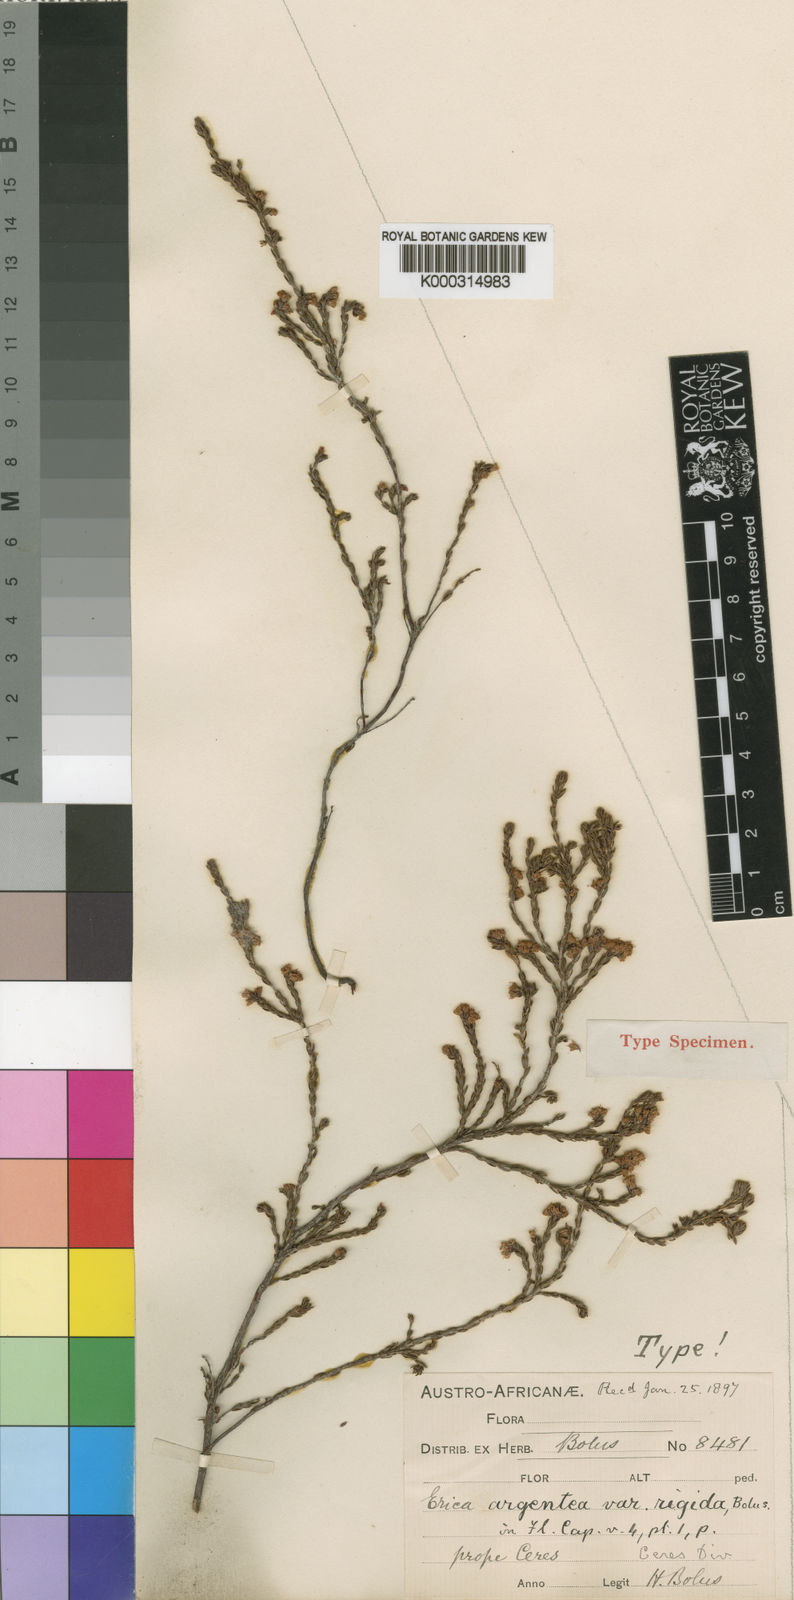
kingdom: Plantae
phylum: Tracheophyta
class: Magnoliopsida
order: Ericales
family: Ericaceae
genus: Erica
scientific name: Erica
